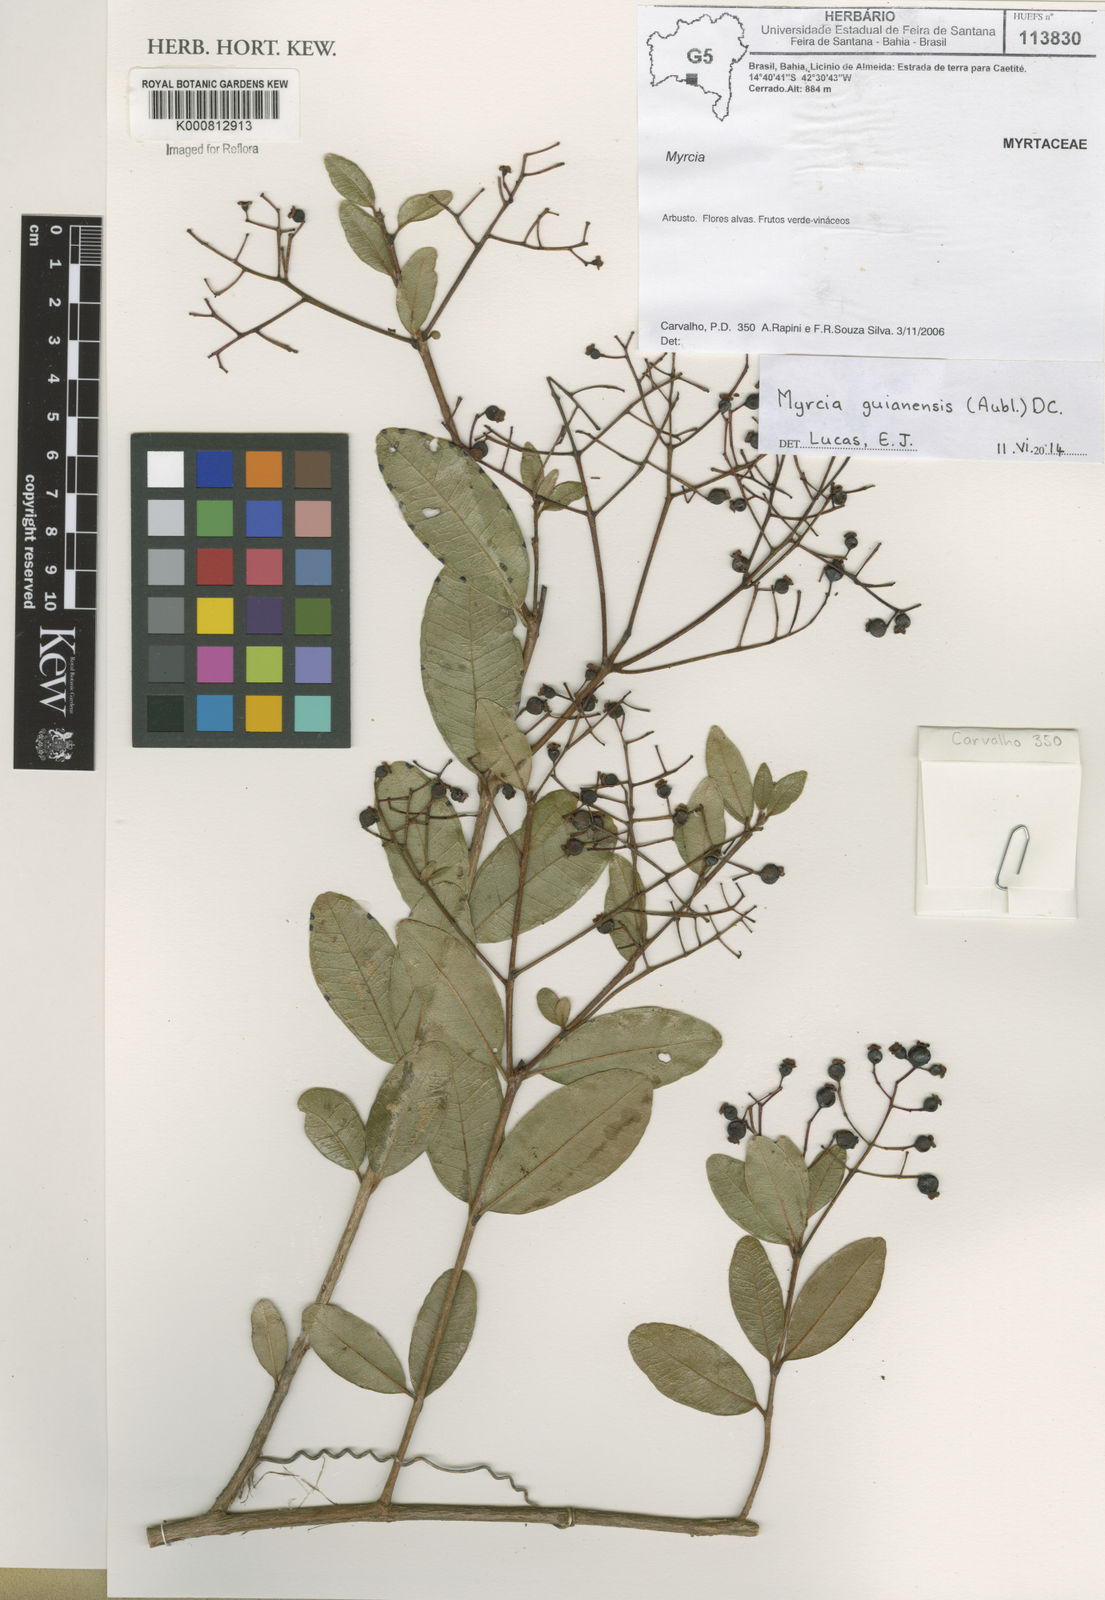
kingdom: Plantae
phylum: Tracheophyta
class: Magnoliopsida
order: Myrtales
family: Myrtaceae
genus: Myrcia
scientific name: Myrcia guianensis
